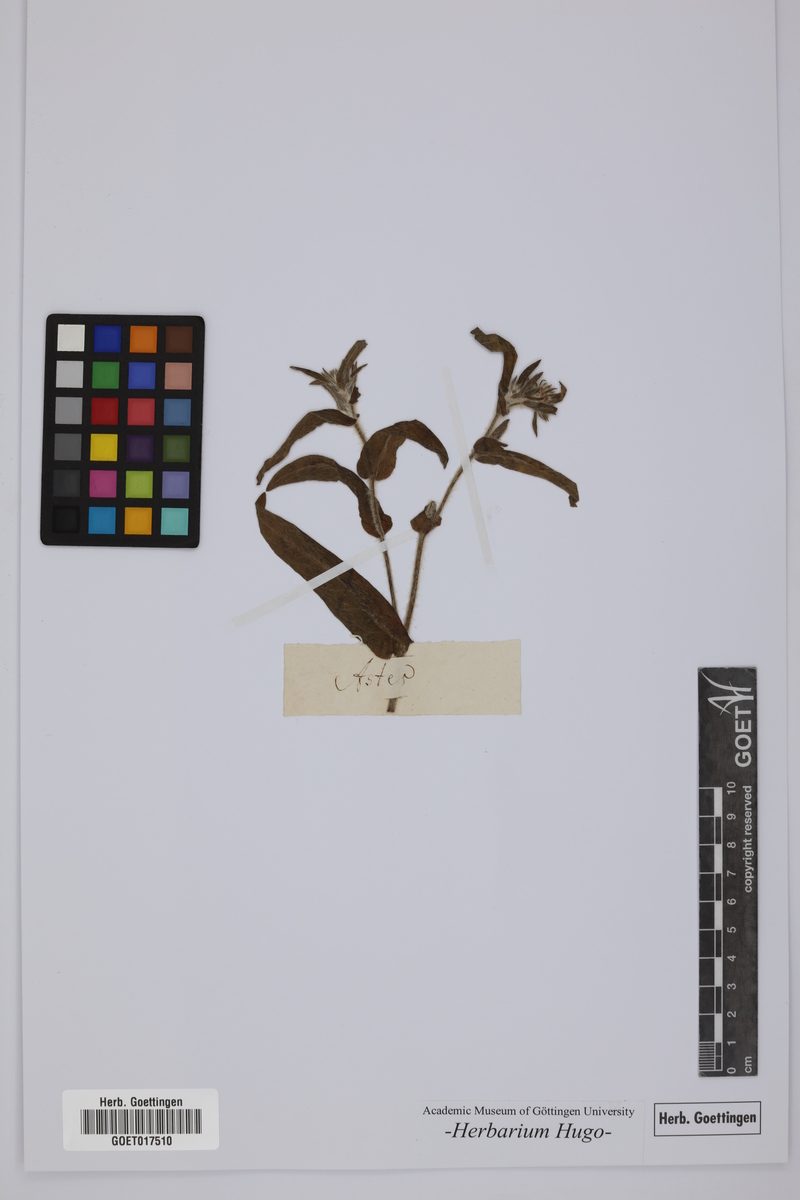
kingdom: Plantae
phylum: Tracheophyta
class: Magnoliopsida
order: Asterales
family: Asteraceae
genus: Aster
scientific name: Aster
